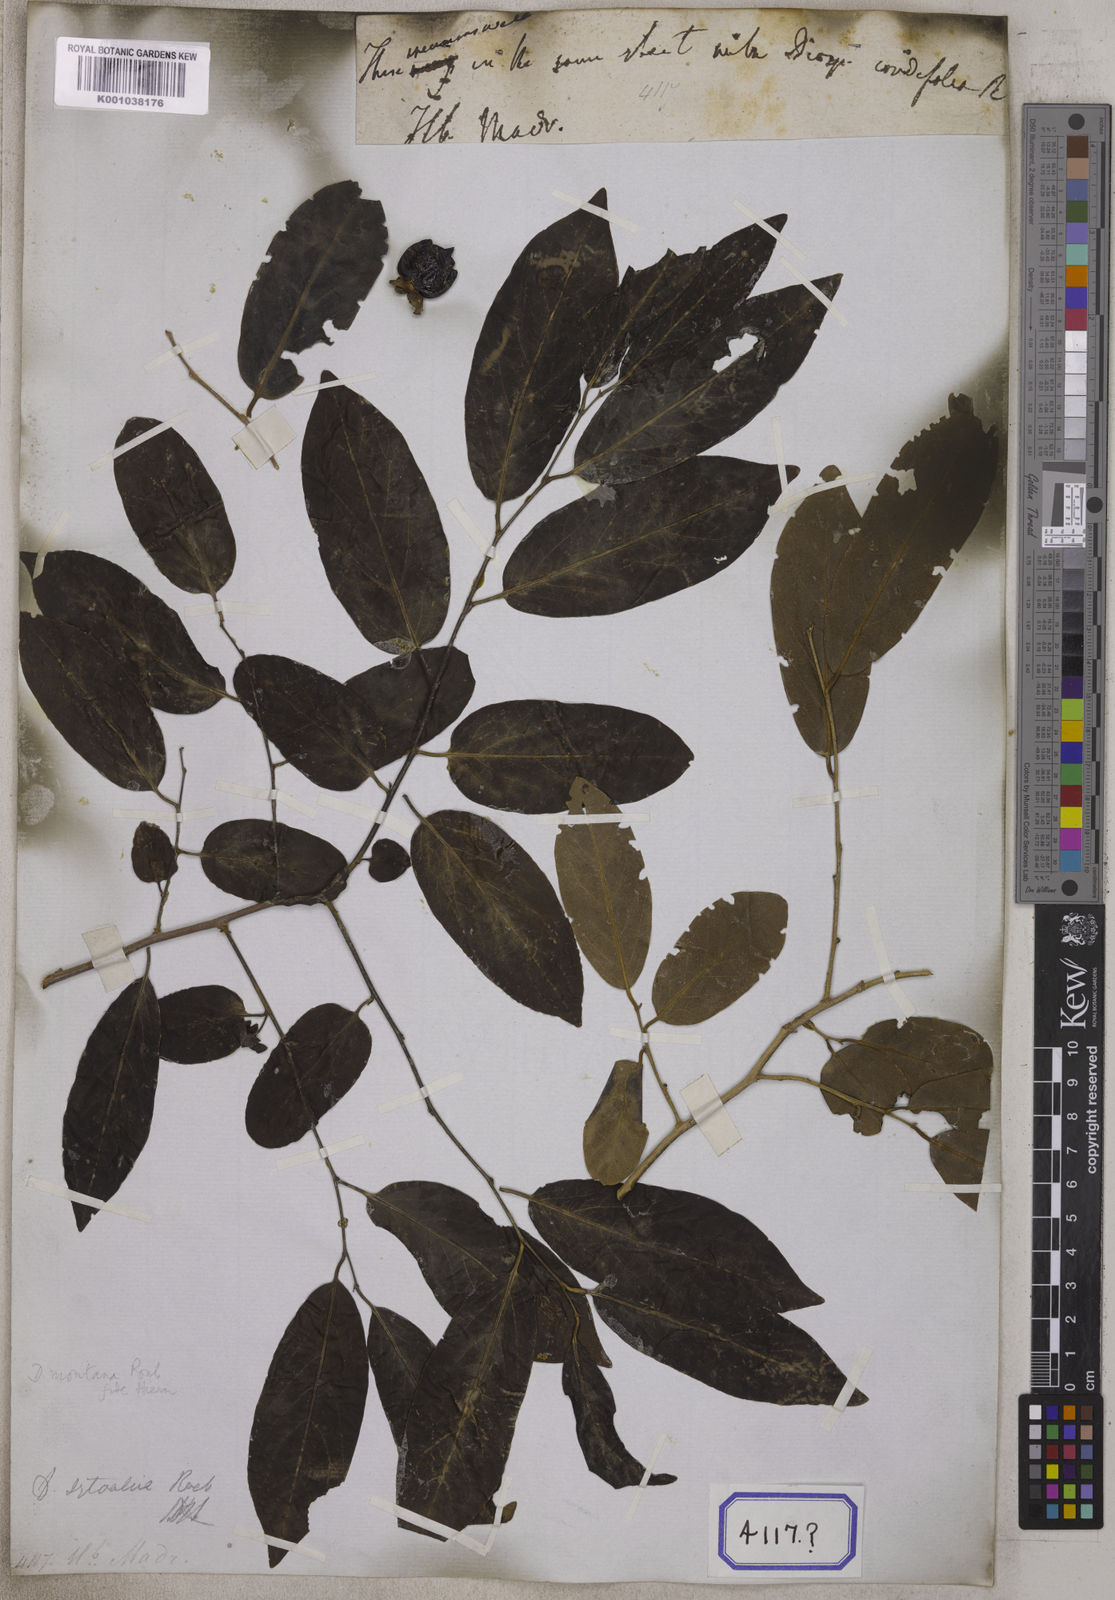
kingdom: Plantae
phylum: Tracheophyta
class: Magnoliopsida
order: Ericales
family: Ebenaceae
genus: Diospyros
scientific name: Diospyros
